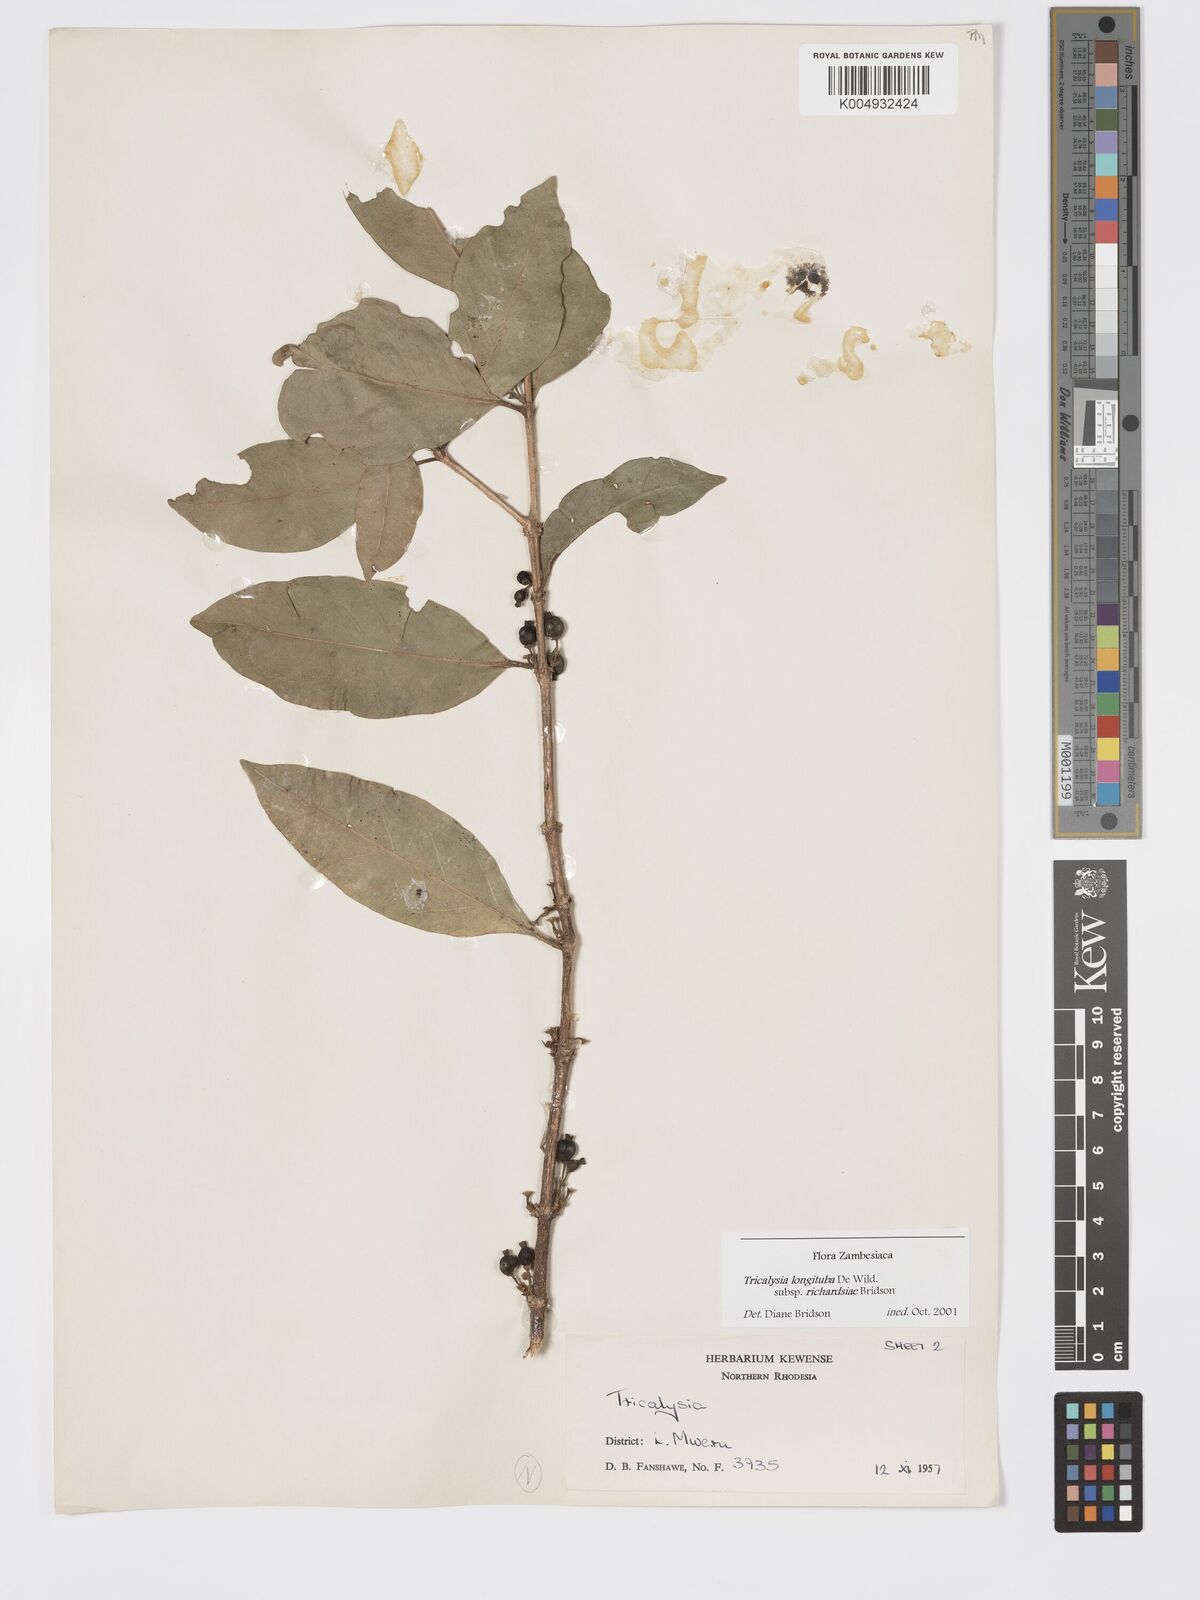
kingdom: Plantae
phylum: Tracheophyta
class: Magnoliopsida
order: Gentianales
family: Rubiaceae
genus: Tricalysia
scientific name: Tricalysia longituba
